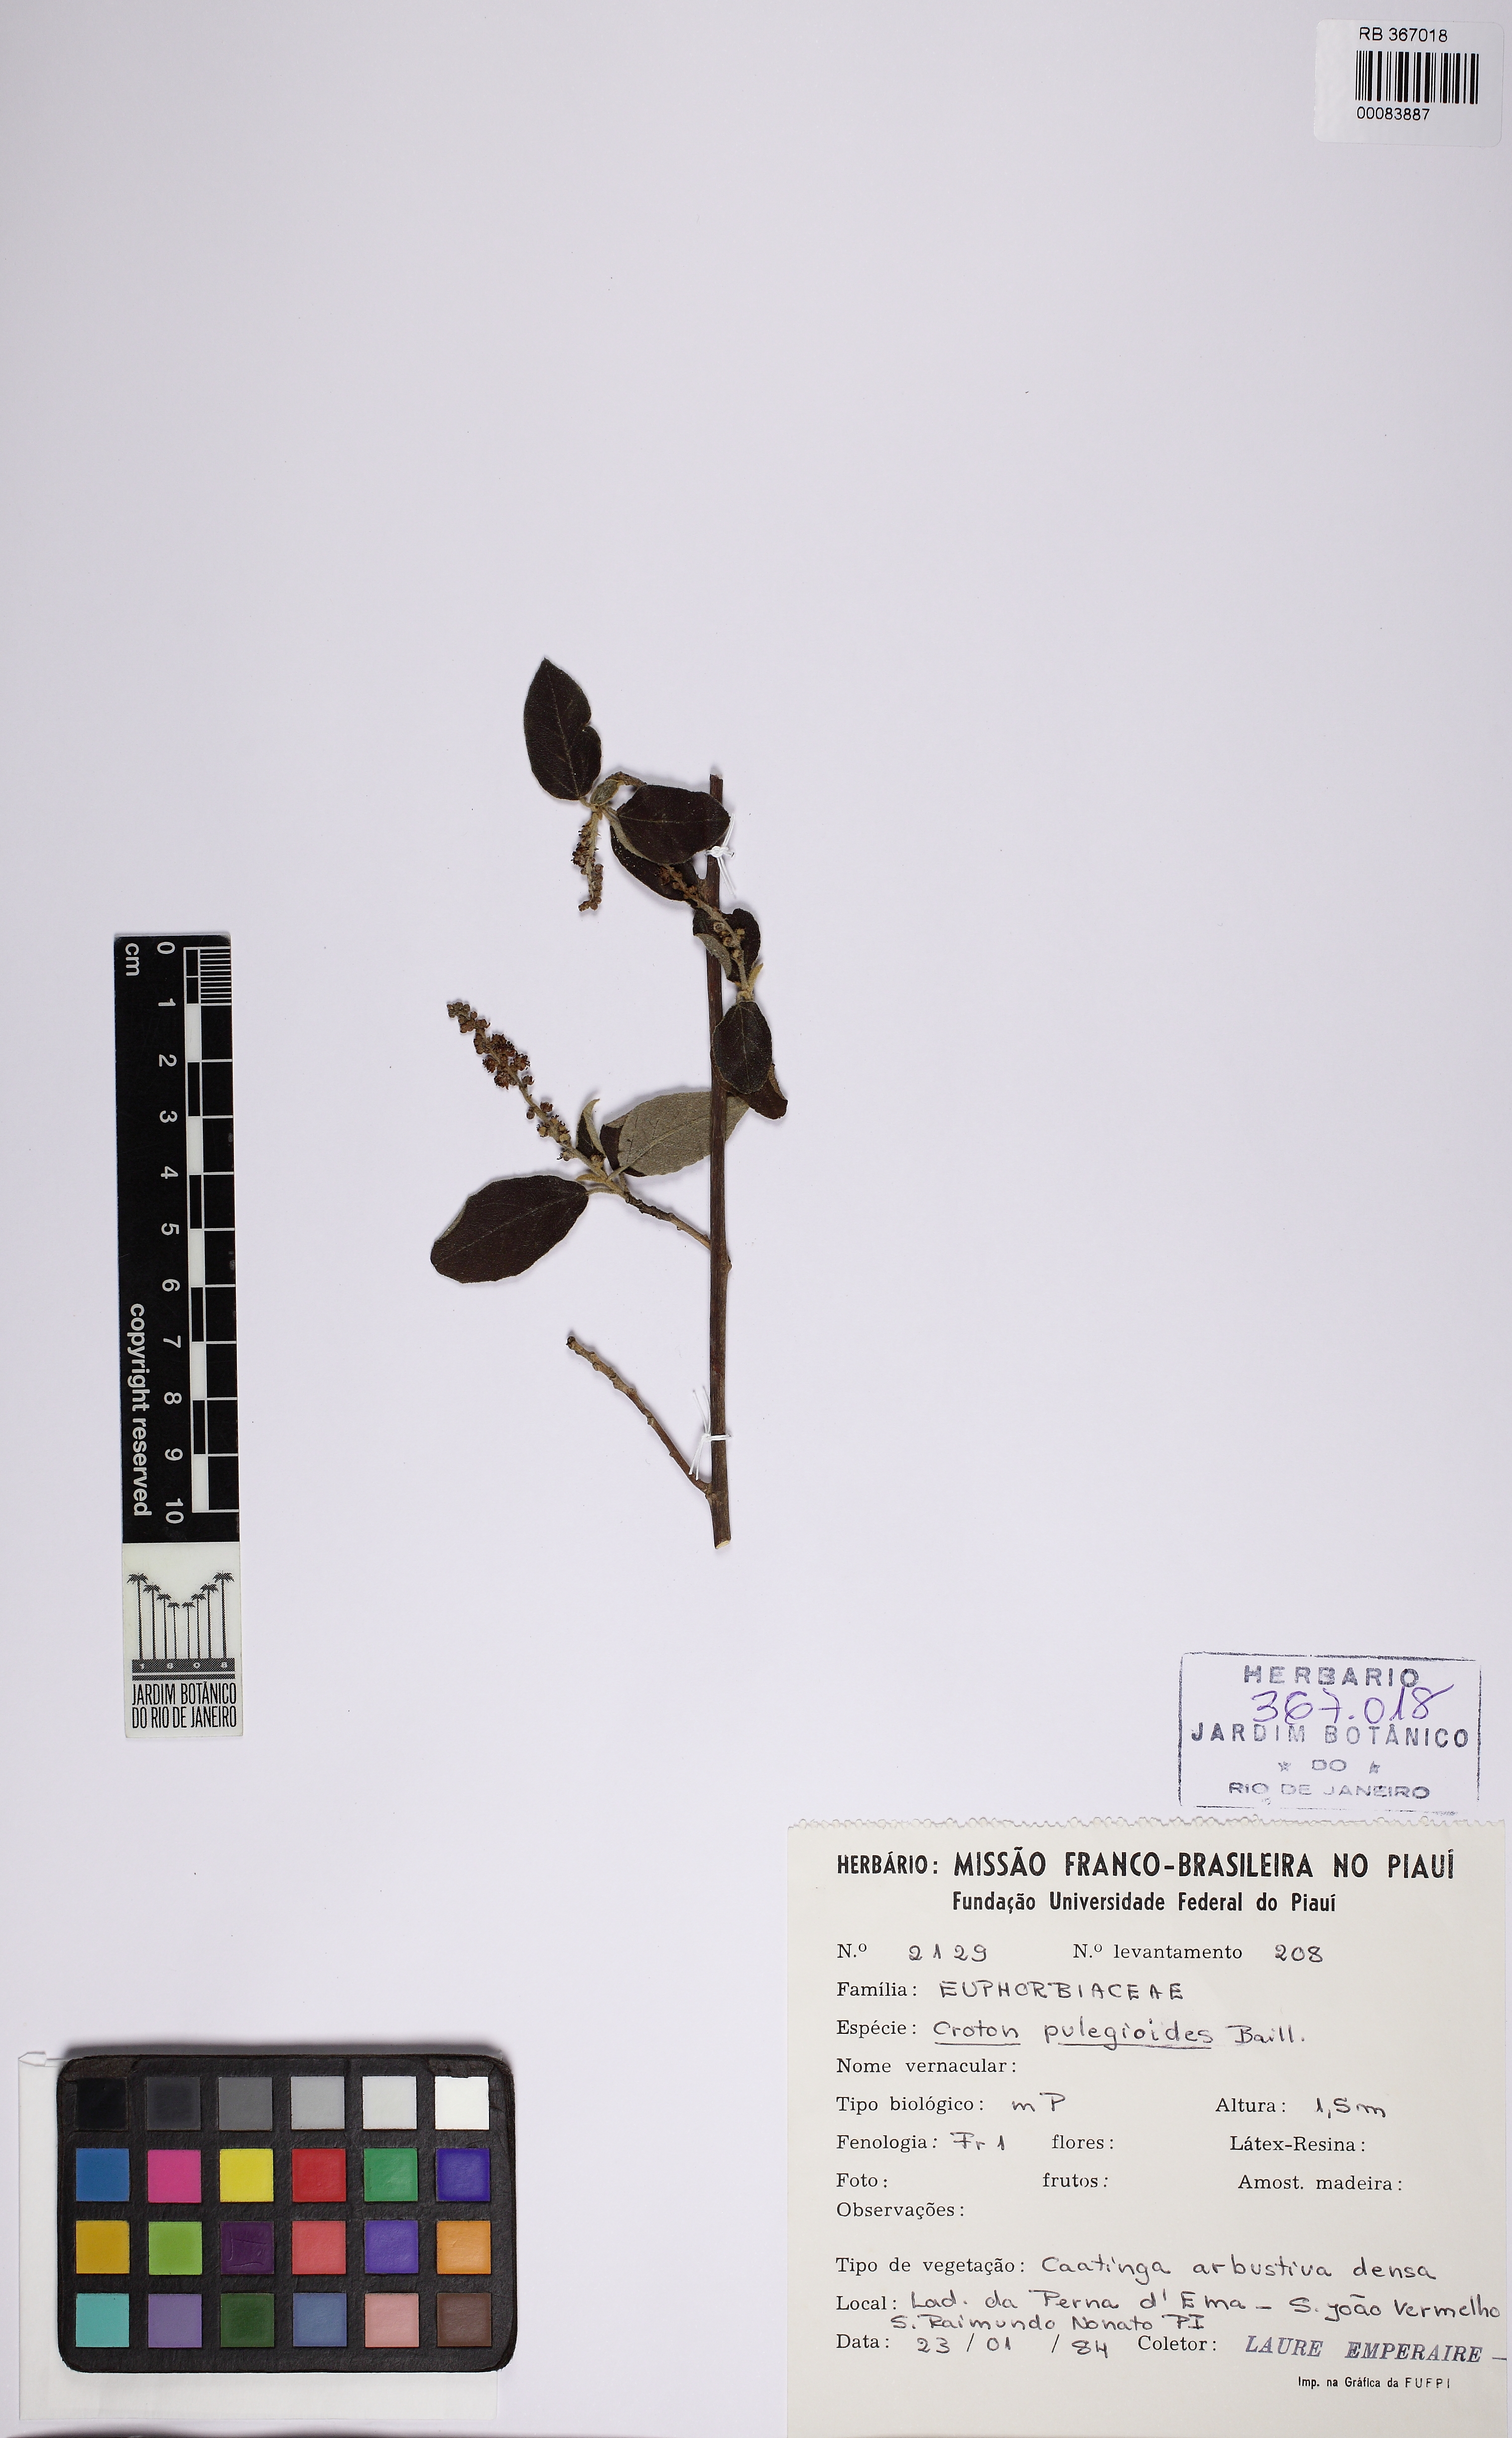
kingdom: Plantae
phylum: Tracheophyta
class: Magnoliopsida
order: Malpighiales
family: Euphorbiaceae
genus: Croton
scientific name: Croton pulegiodorus
